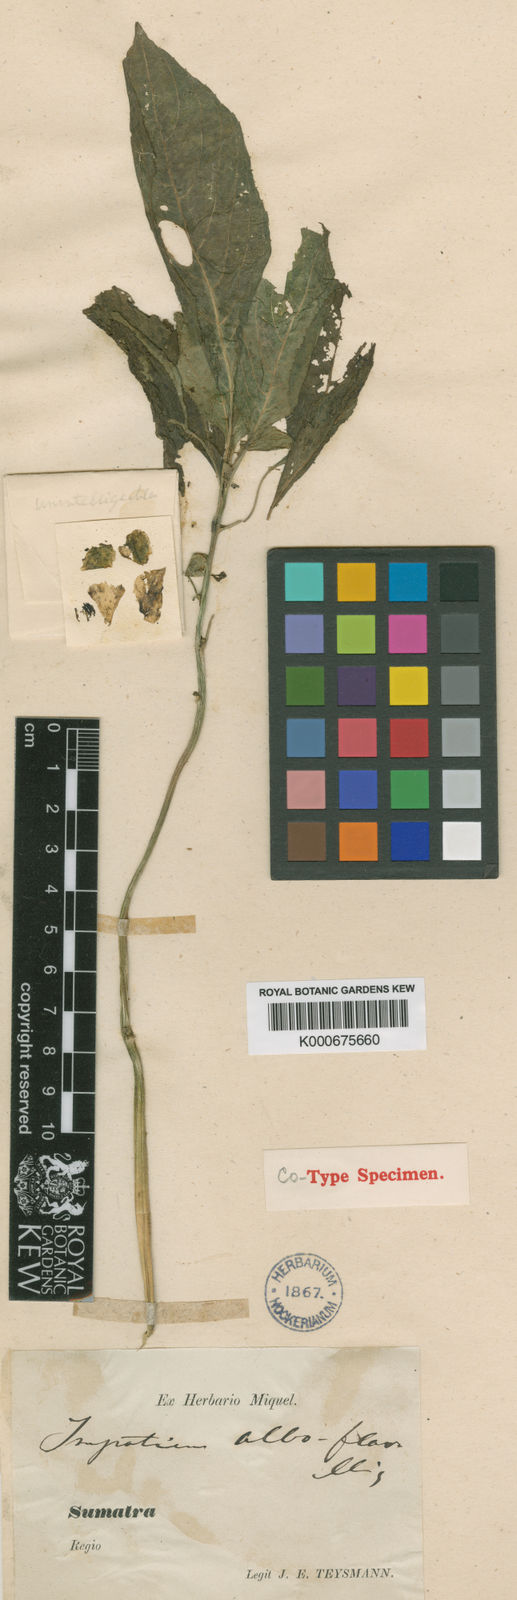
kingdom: Plantae
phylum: Tracheophyta
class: Magnoliopsida
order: Ericales
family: Balsaminaceae
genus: Impatiens
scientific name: Impatiens alboflava
